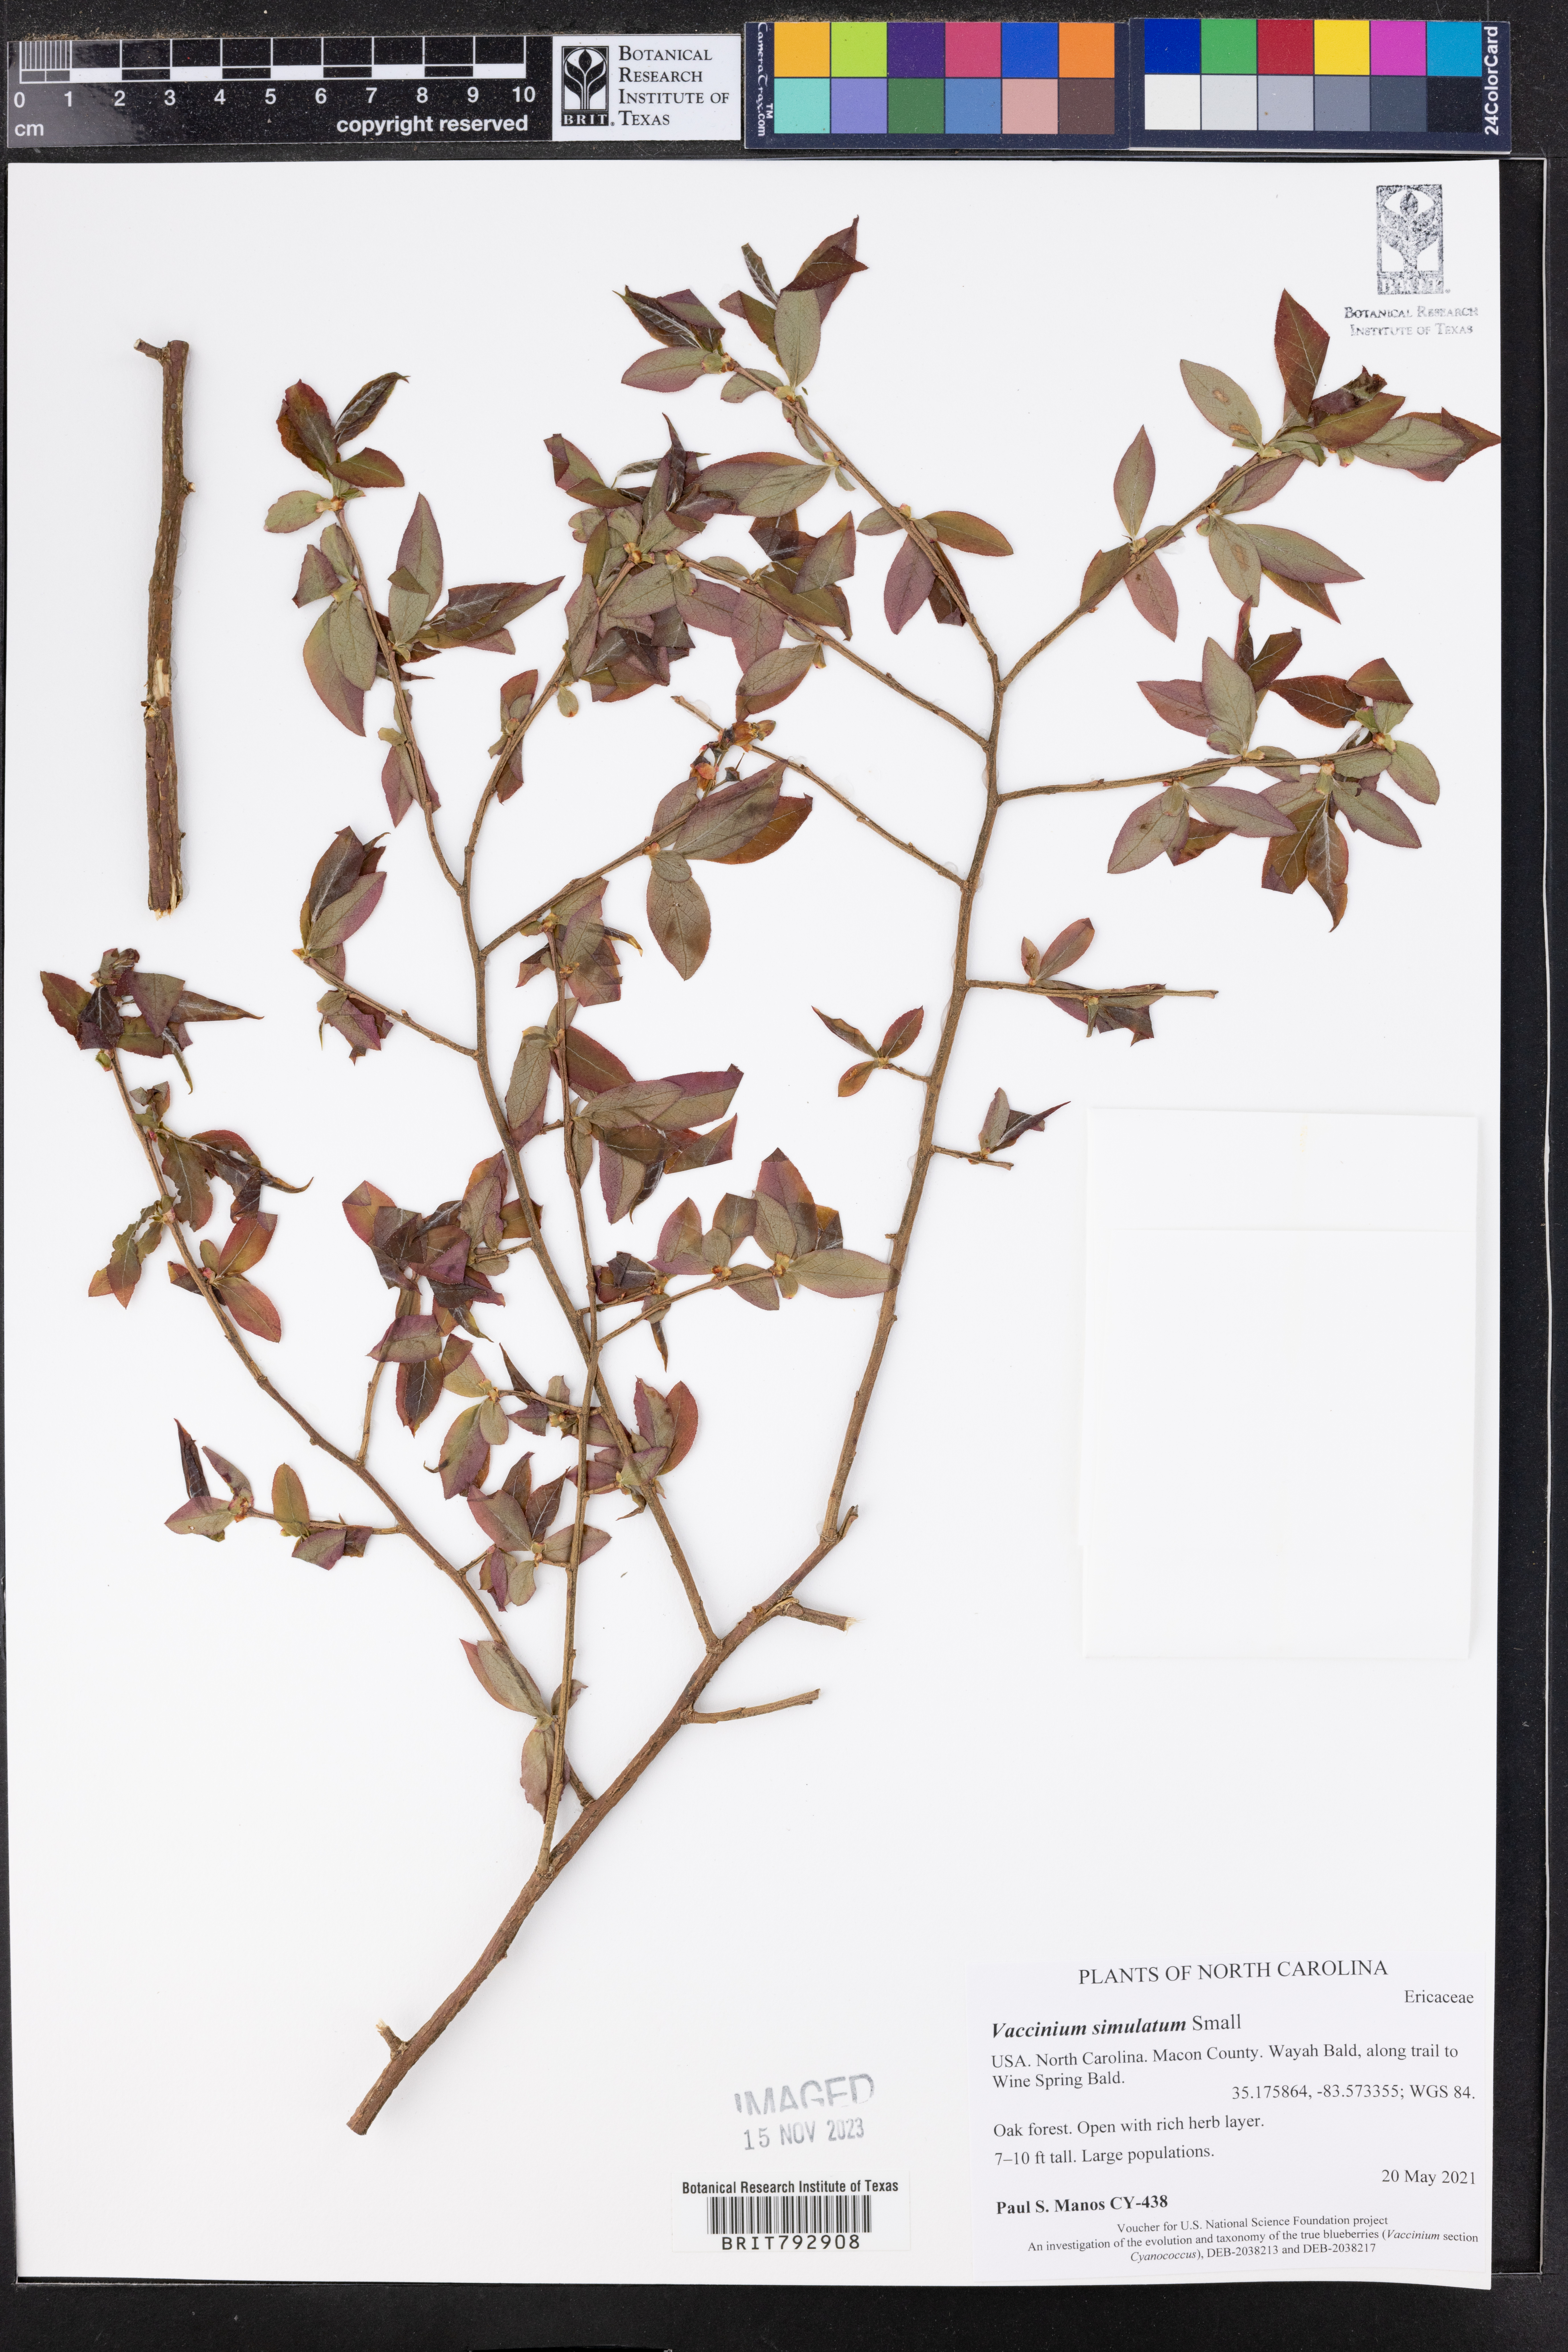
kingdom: Plantae
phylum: Tracheophyta
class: Magnoliopsida
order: Ericales
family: Ericaceae
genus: Vaccinium
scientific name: Vaccinium corymbosum
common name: Blueberry
